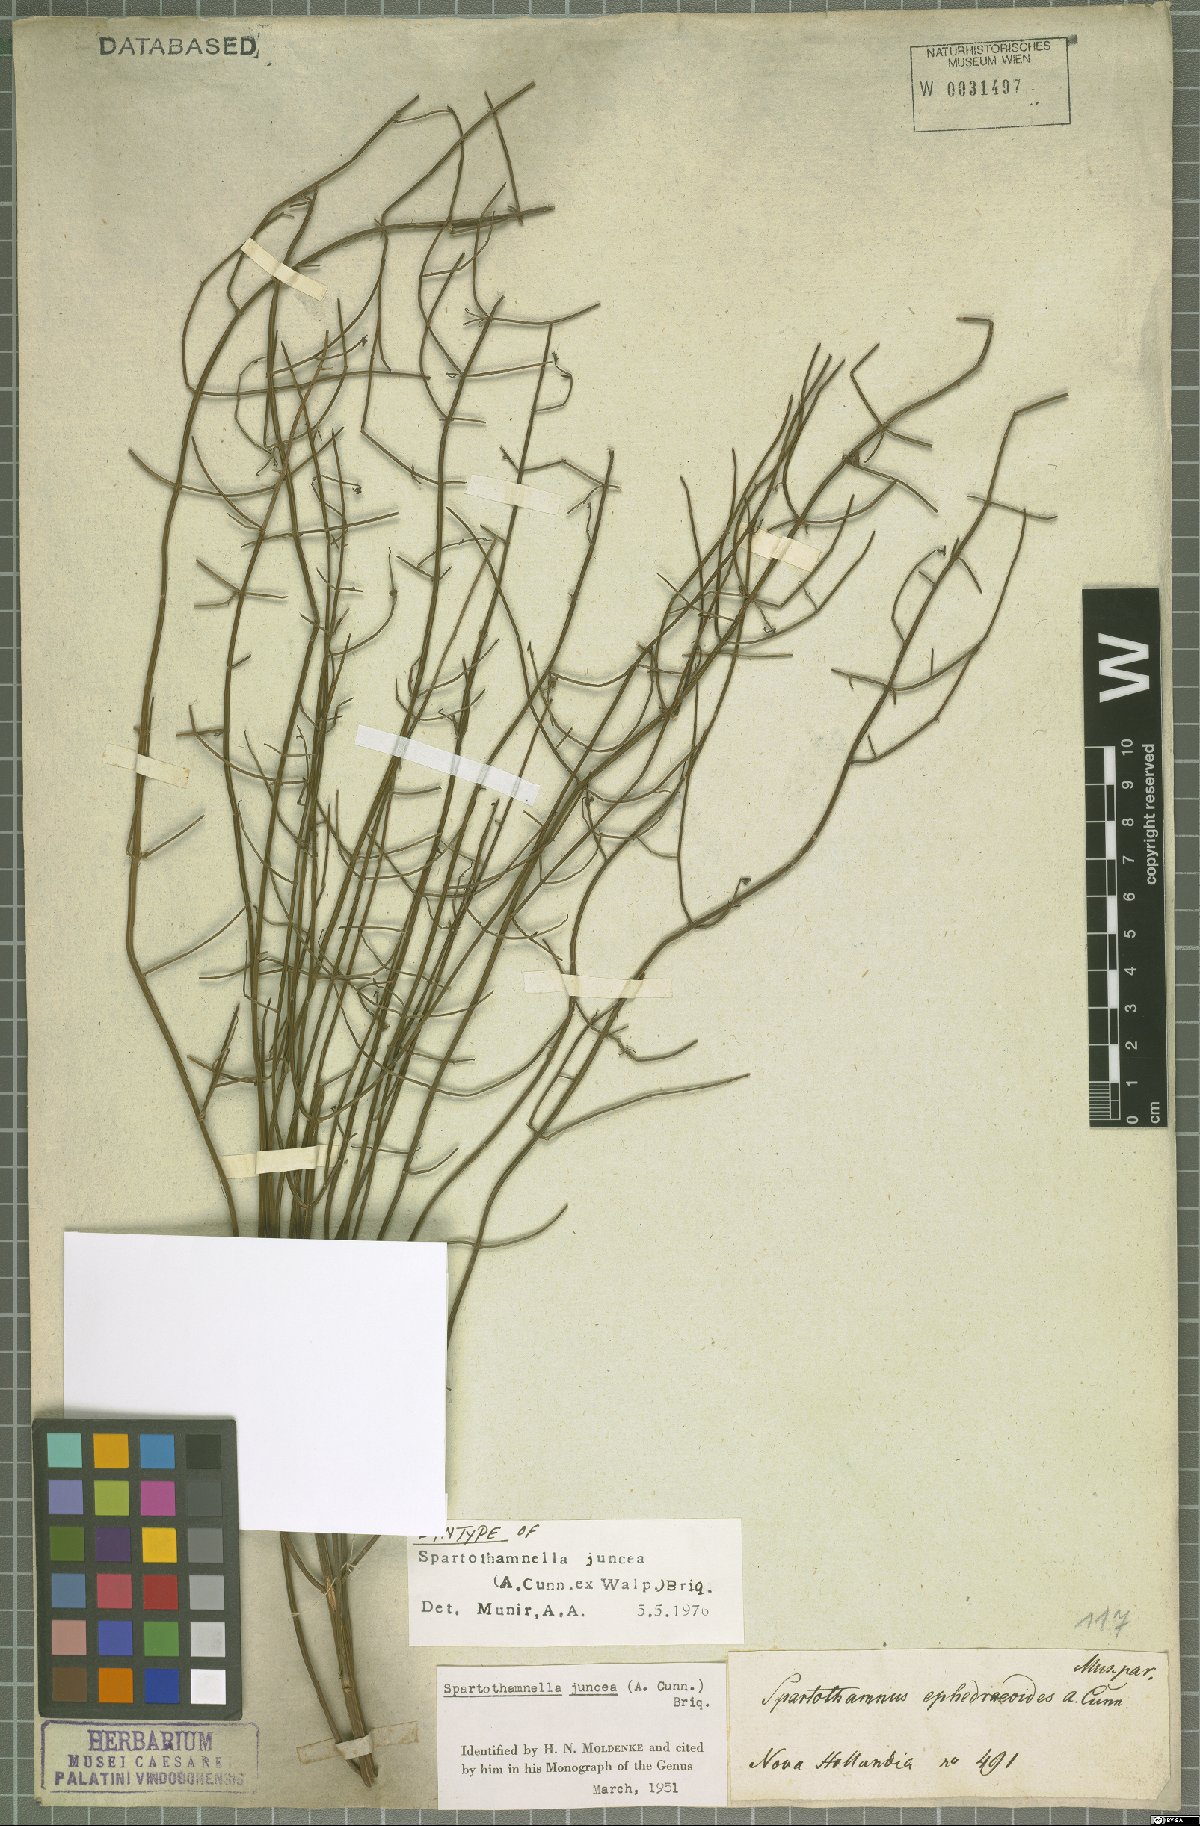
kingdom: Plantae
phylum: Tracheophyta
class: Magnoliopsida
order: Lamiales
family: Lamiaceae
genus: Teucrium
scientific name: Teucrium junceum
